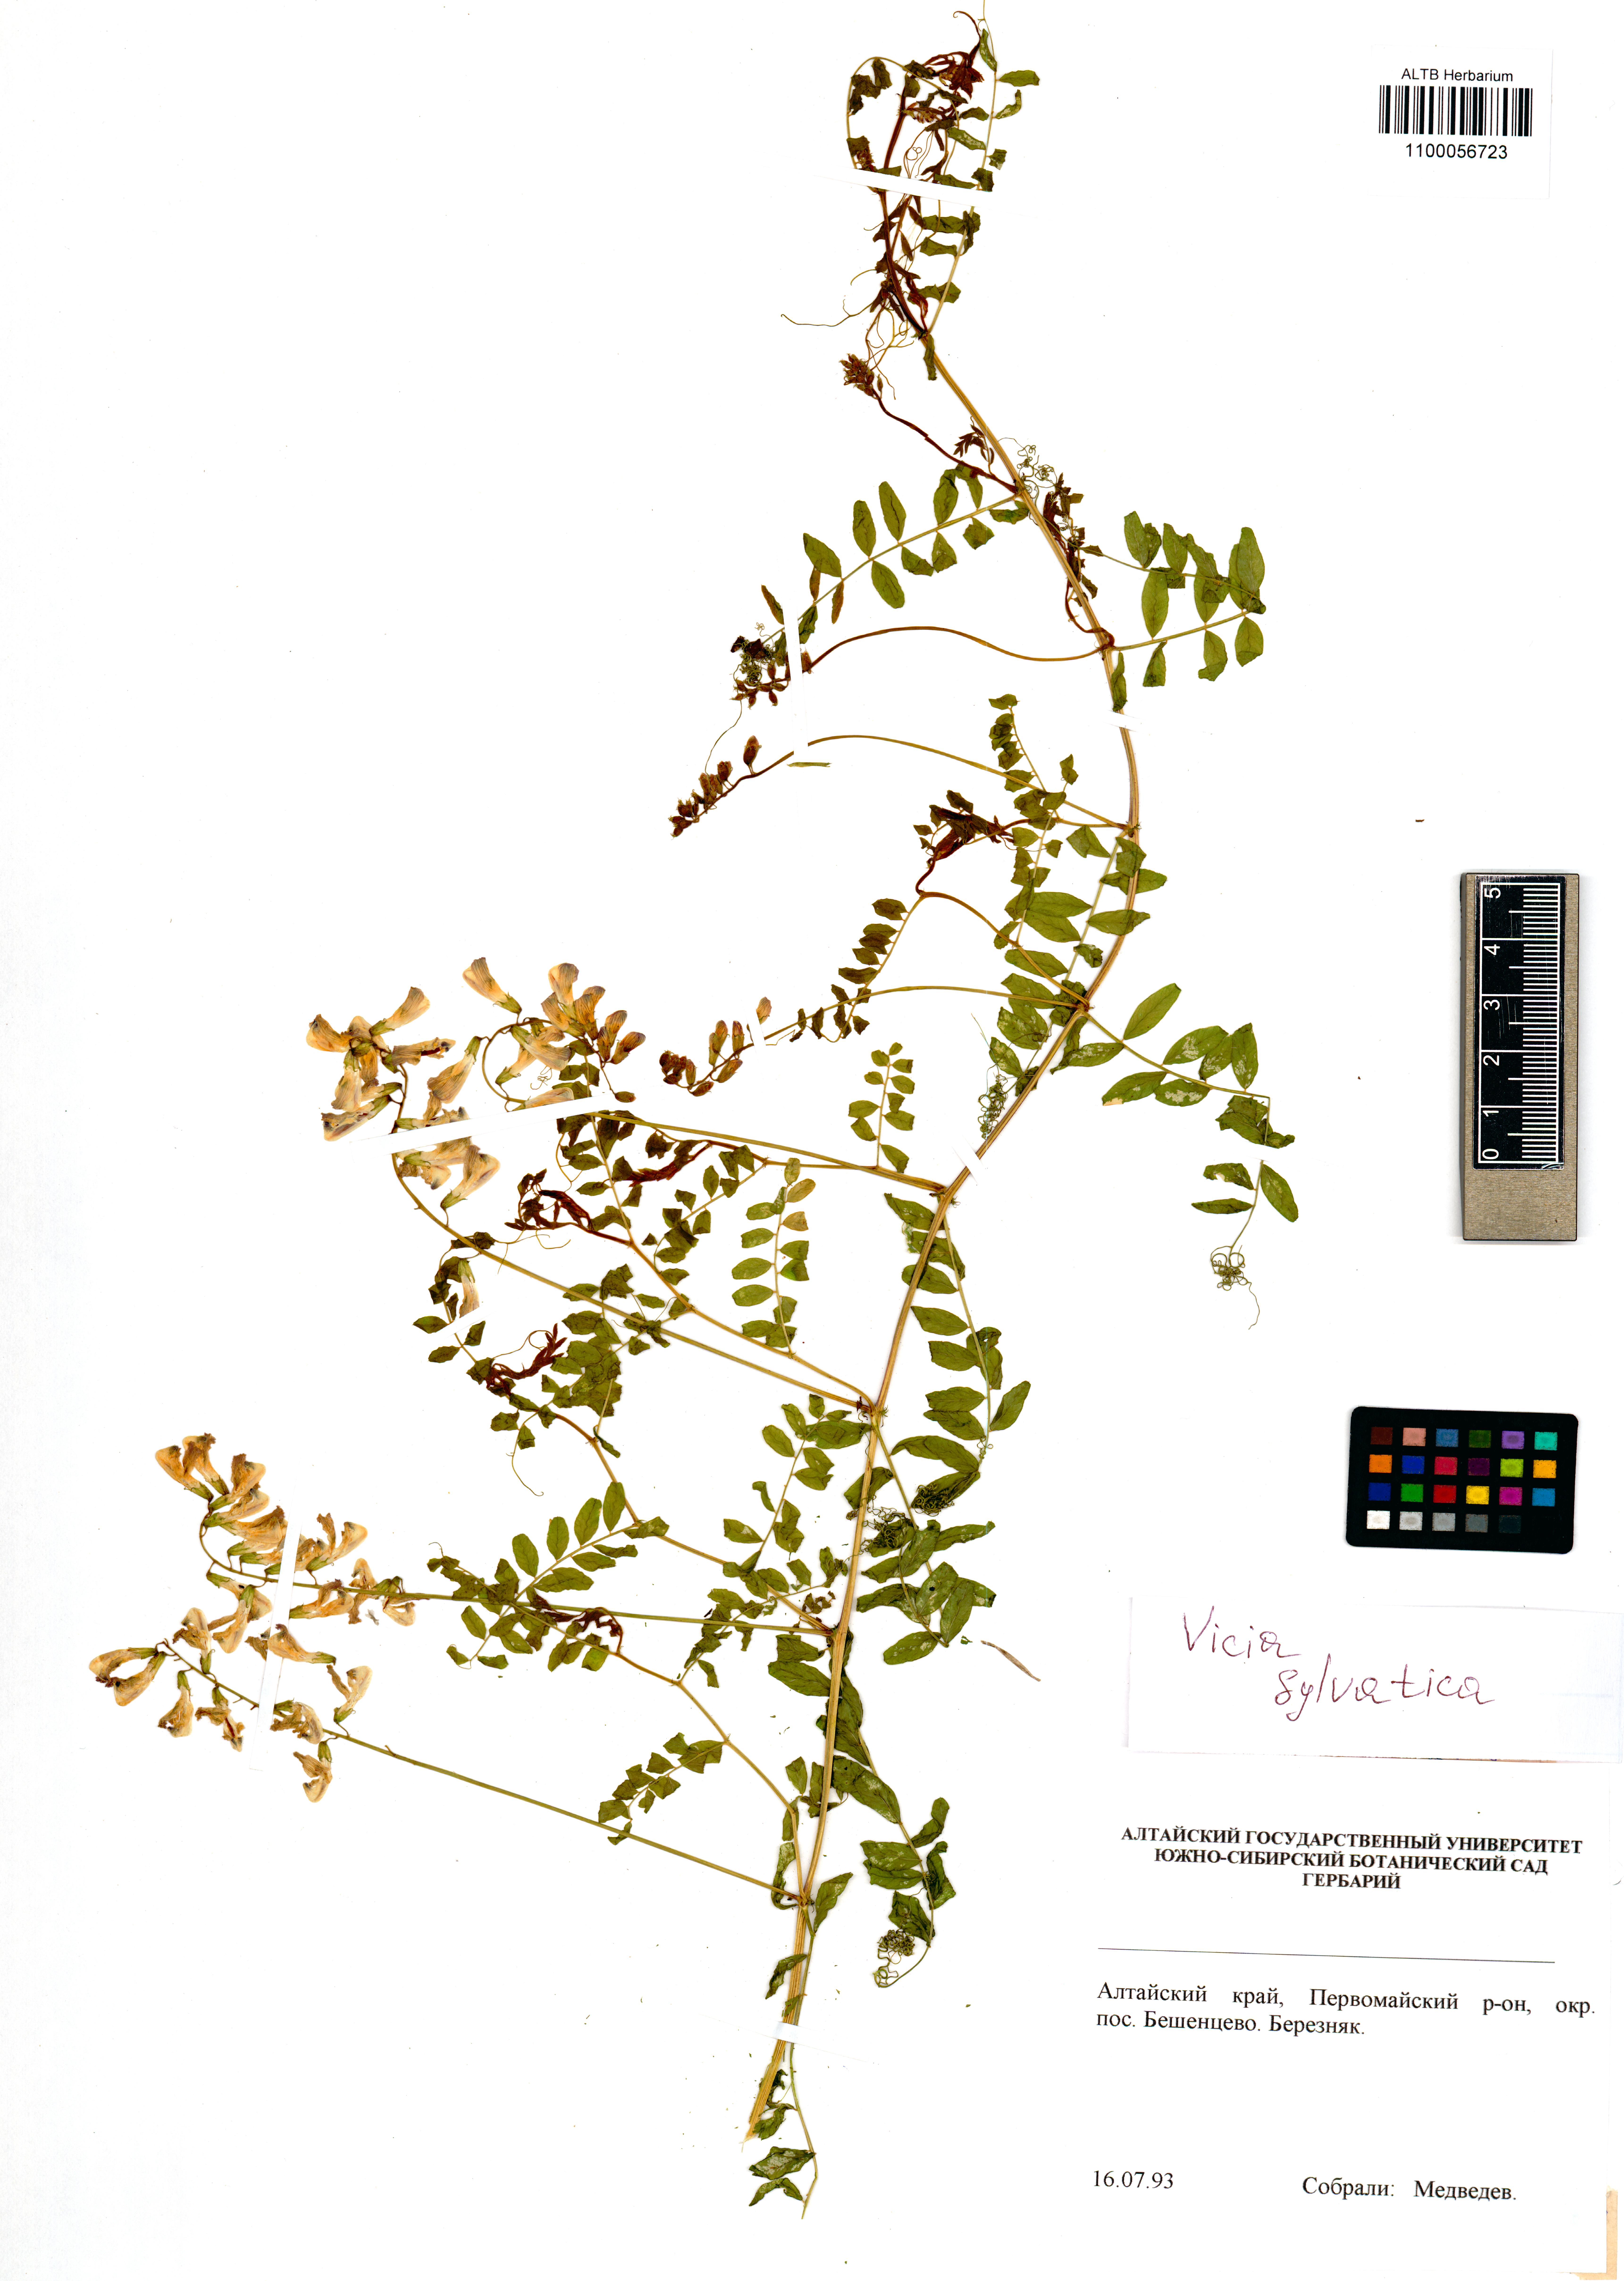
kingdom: Plantae
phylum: Tracheophyta
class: Magnoliopsida
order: Fabales
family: Fabaceae
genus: Vicia
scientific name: Vicia sylvatica
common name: Wood vetch
